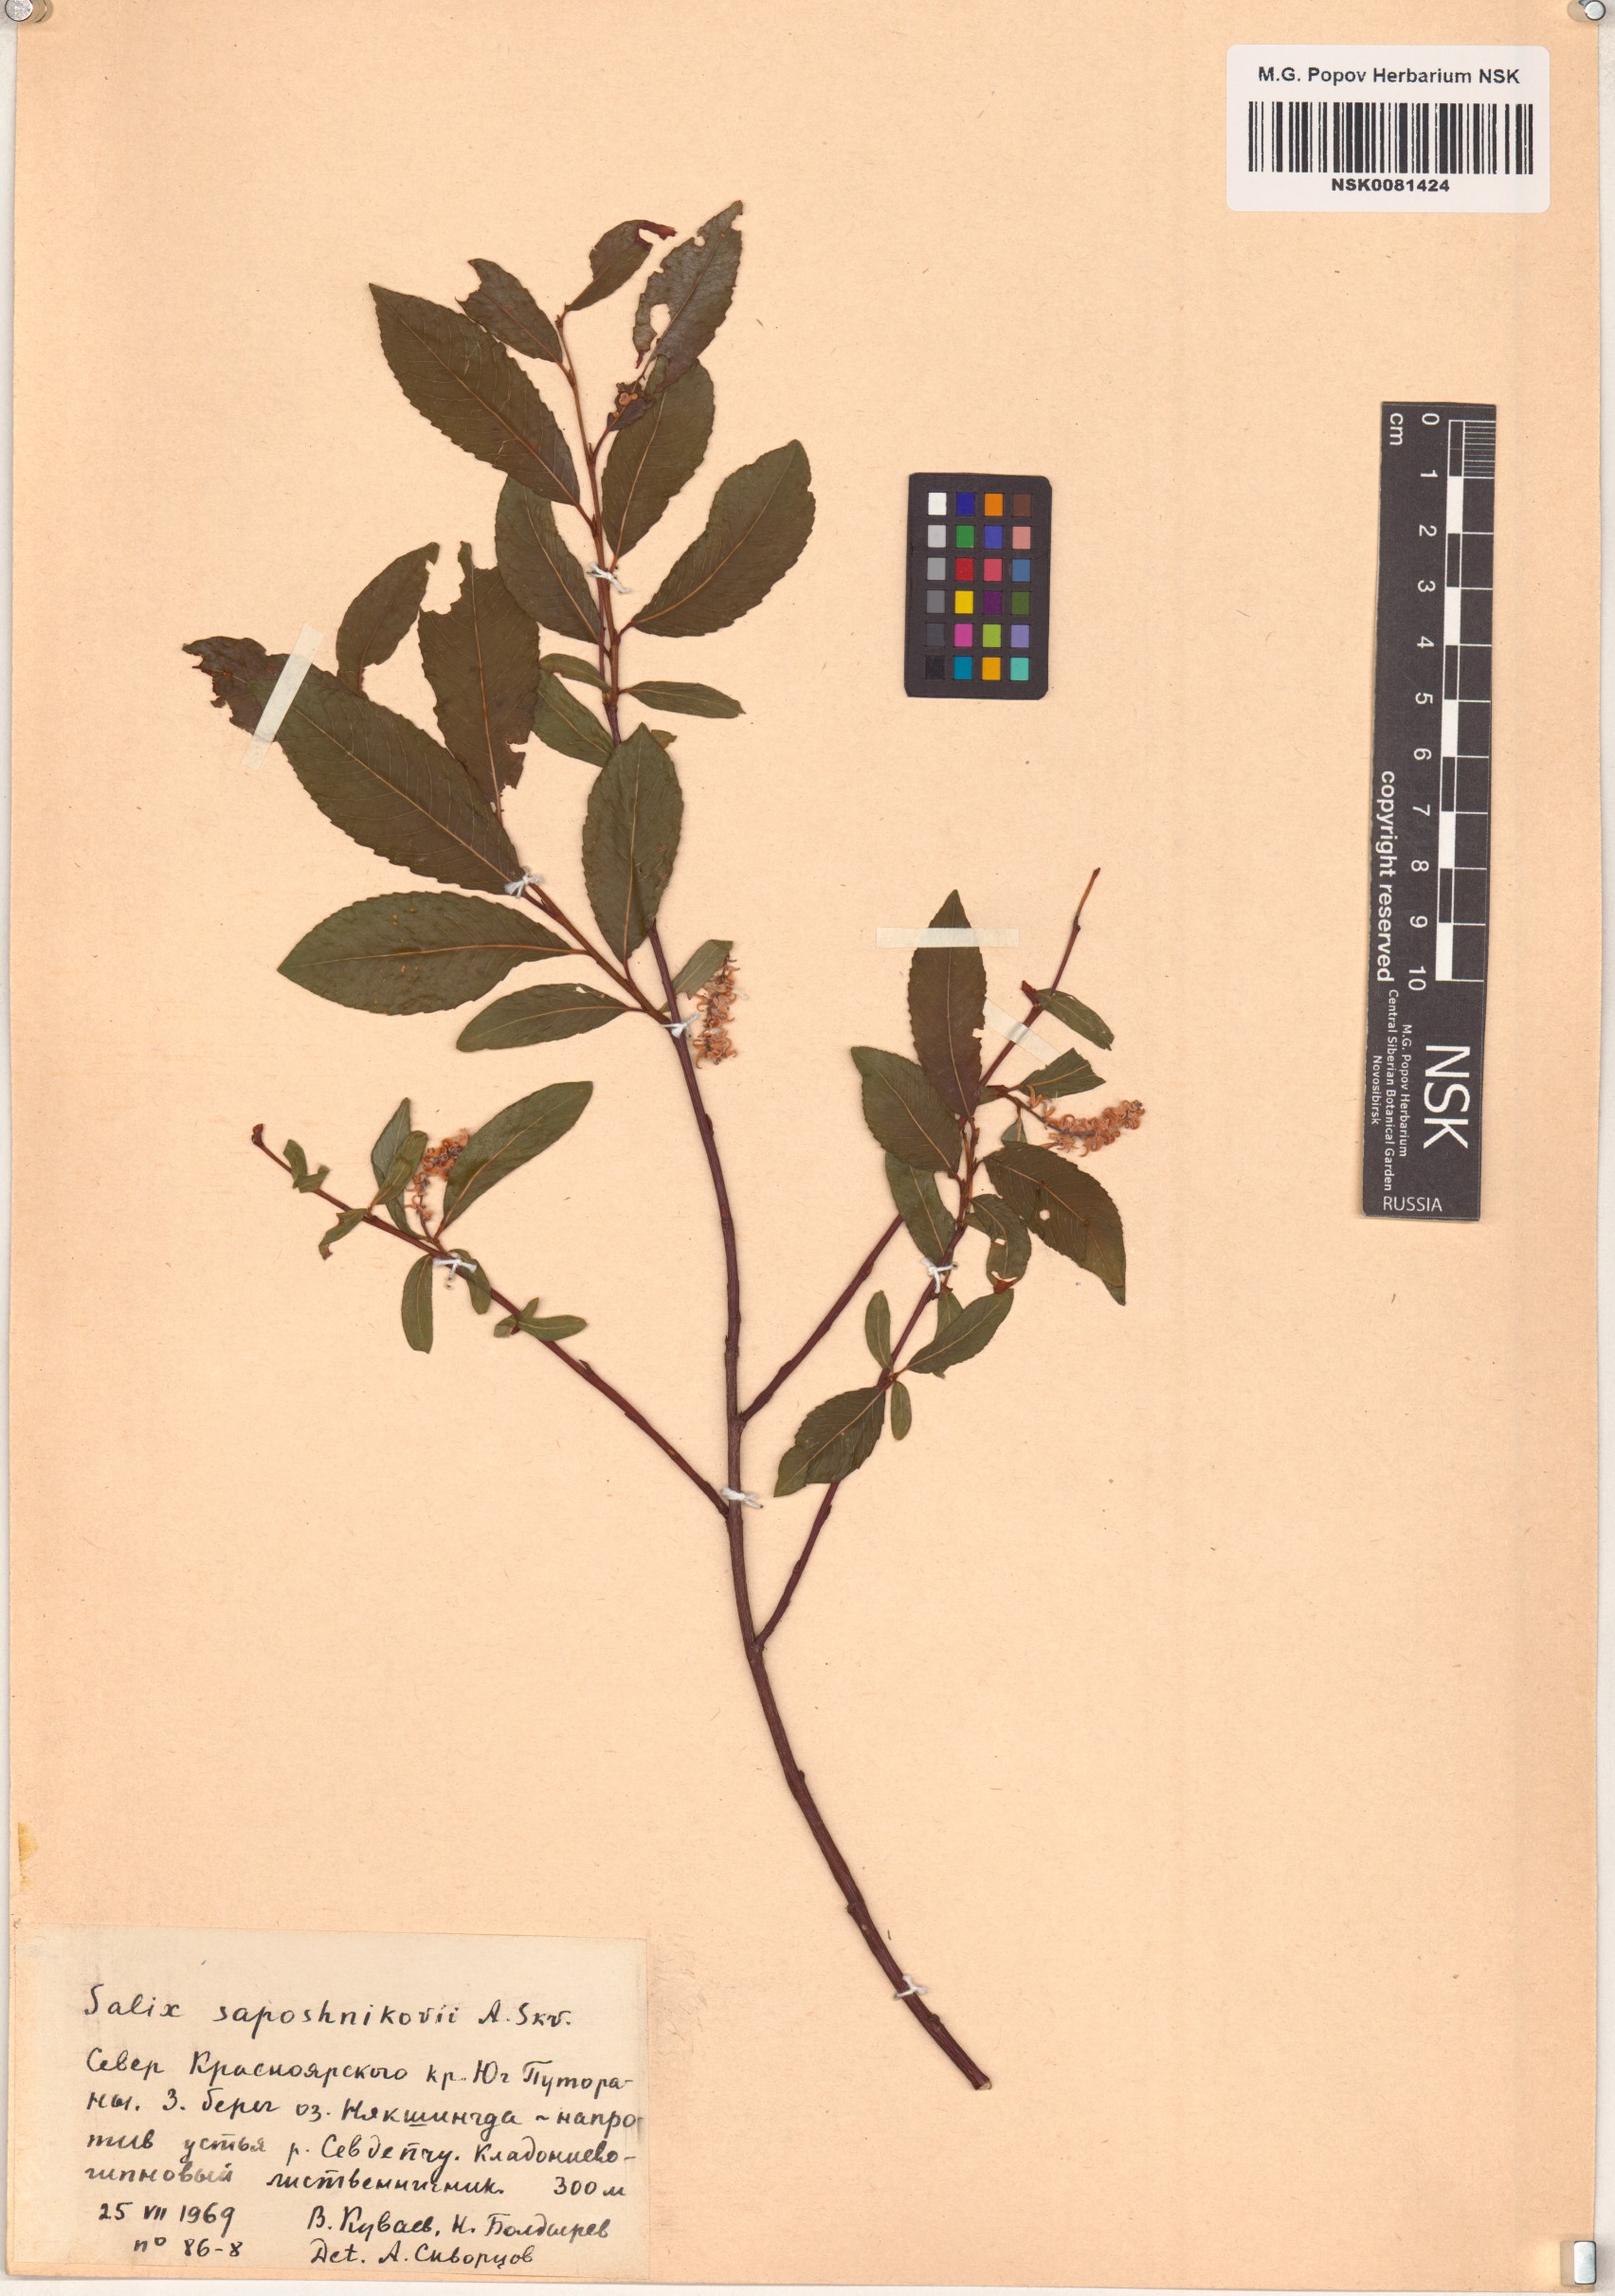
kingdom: Plantae
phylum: Tracheophyta
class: Magnoliopsida
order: Malpighiales
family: Salicaceae
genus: Salix
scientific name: Salix saposhnikovii
